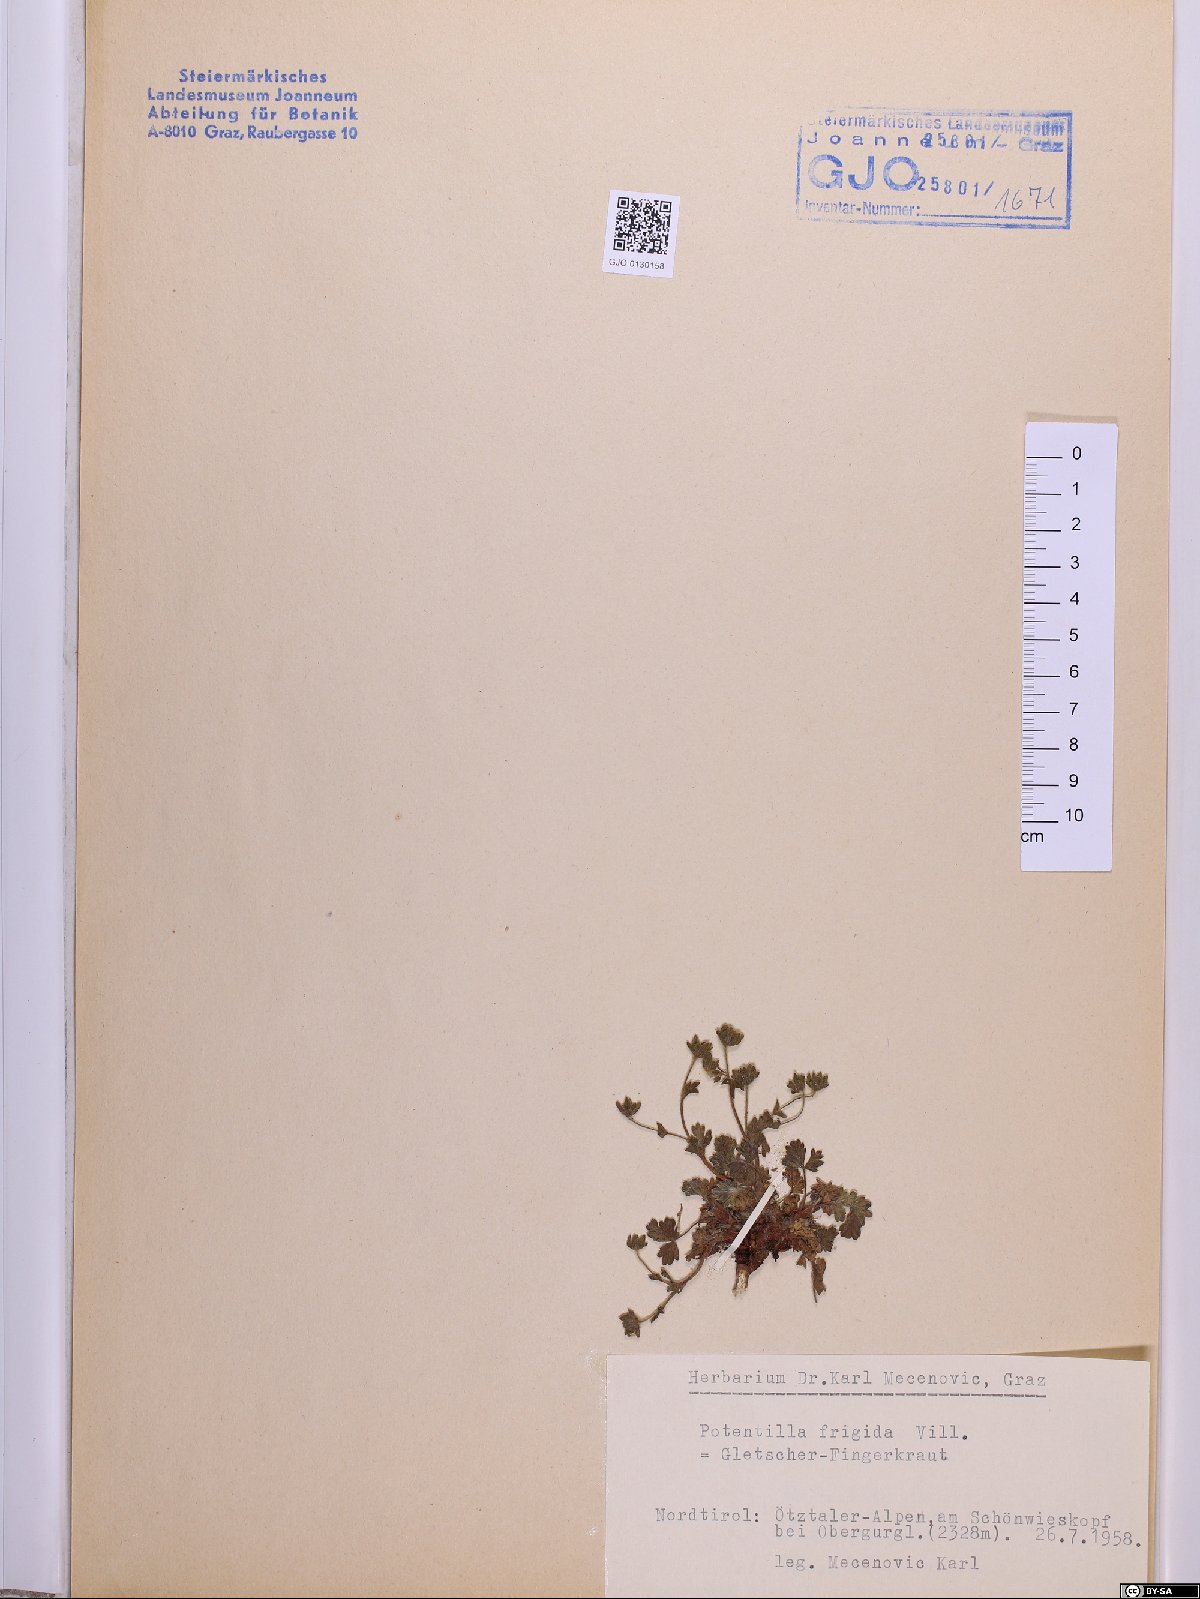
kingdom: Plantae
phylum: Tracheophyta
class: Magnoliopsida
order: Rosales
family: Rosaceae
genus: Potentilla
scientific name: Potentilla frigida
